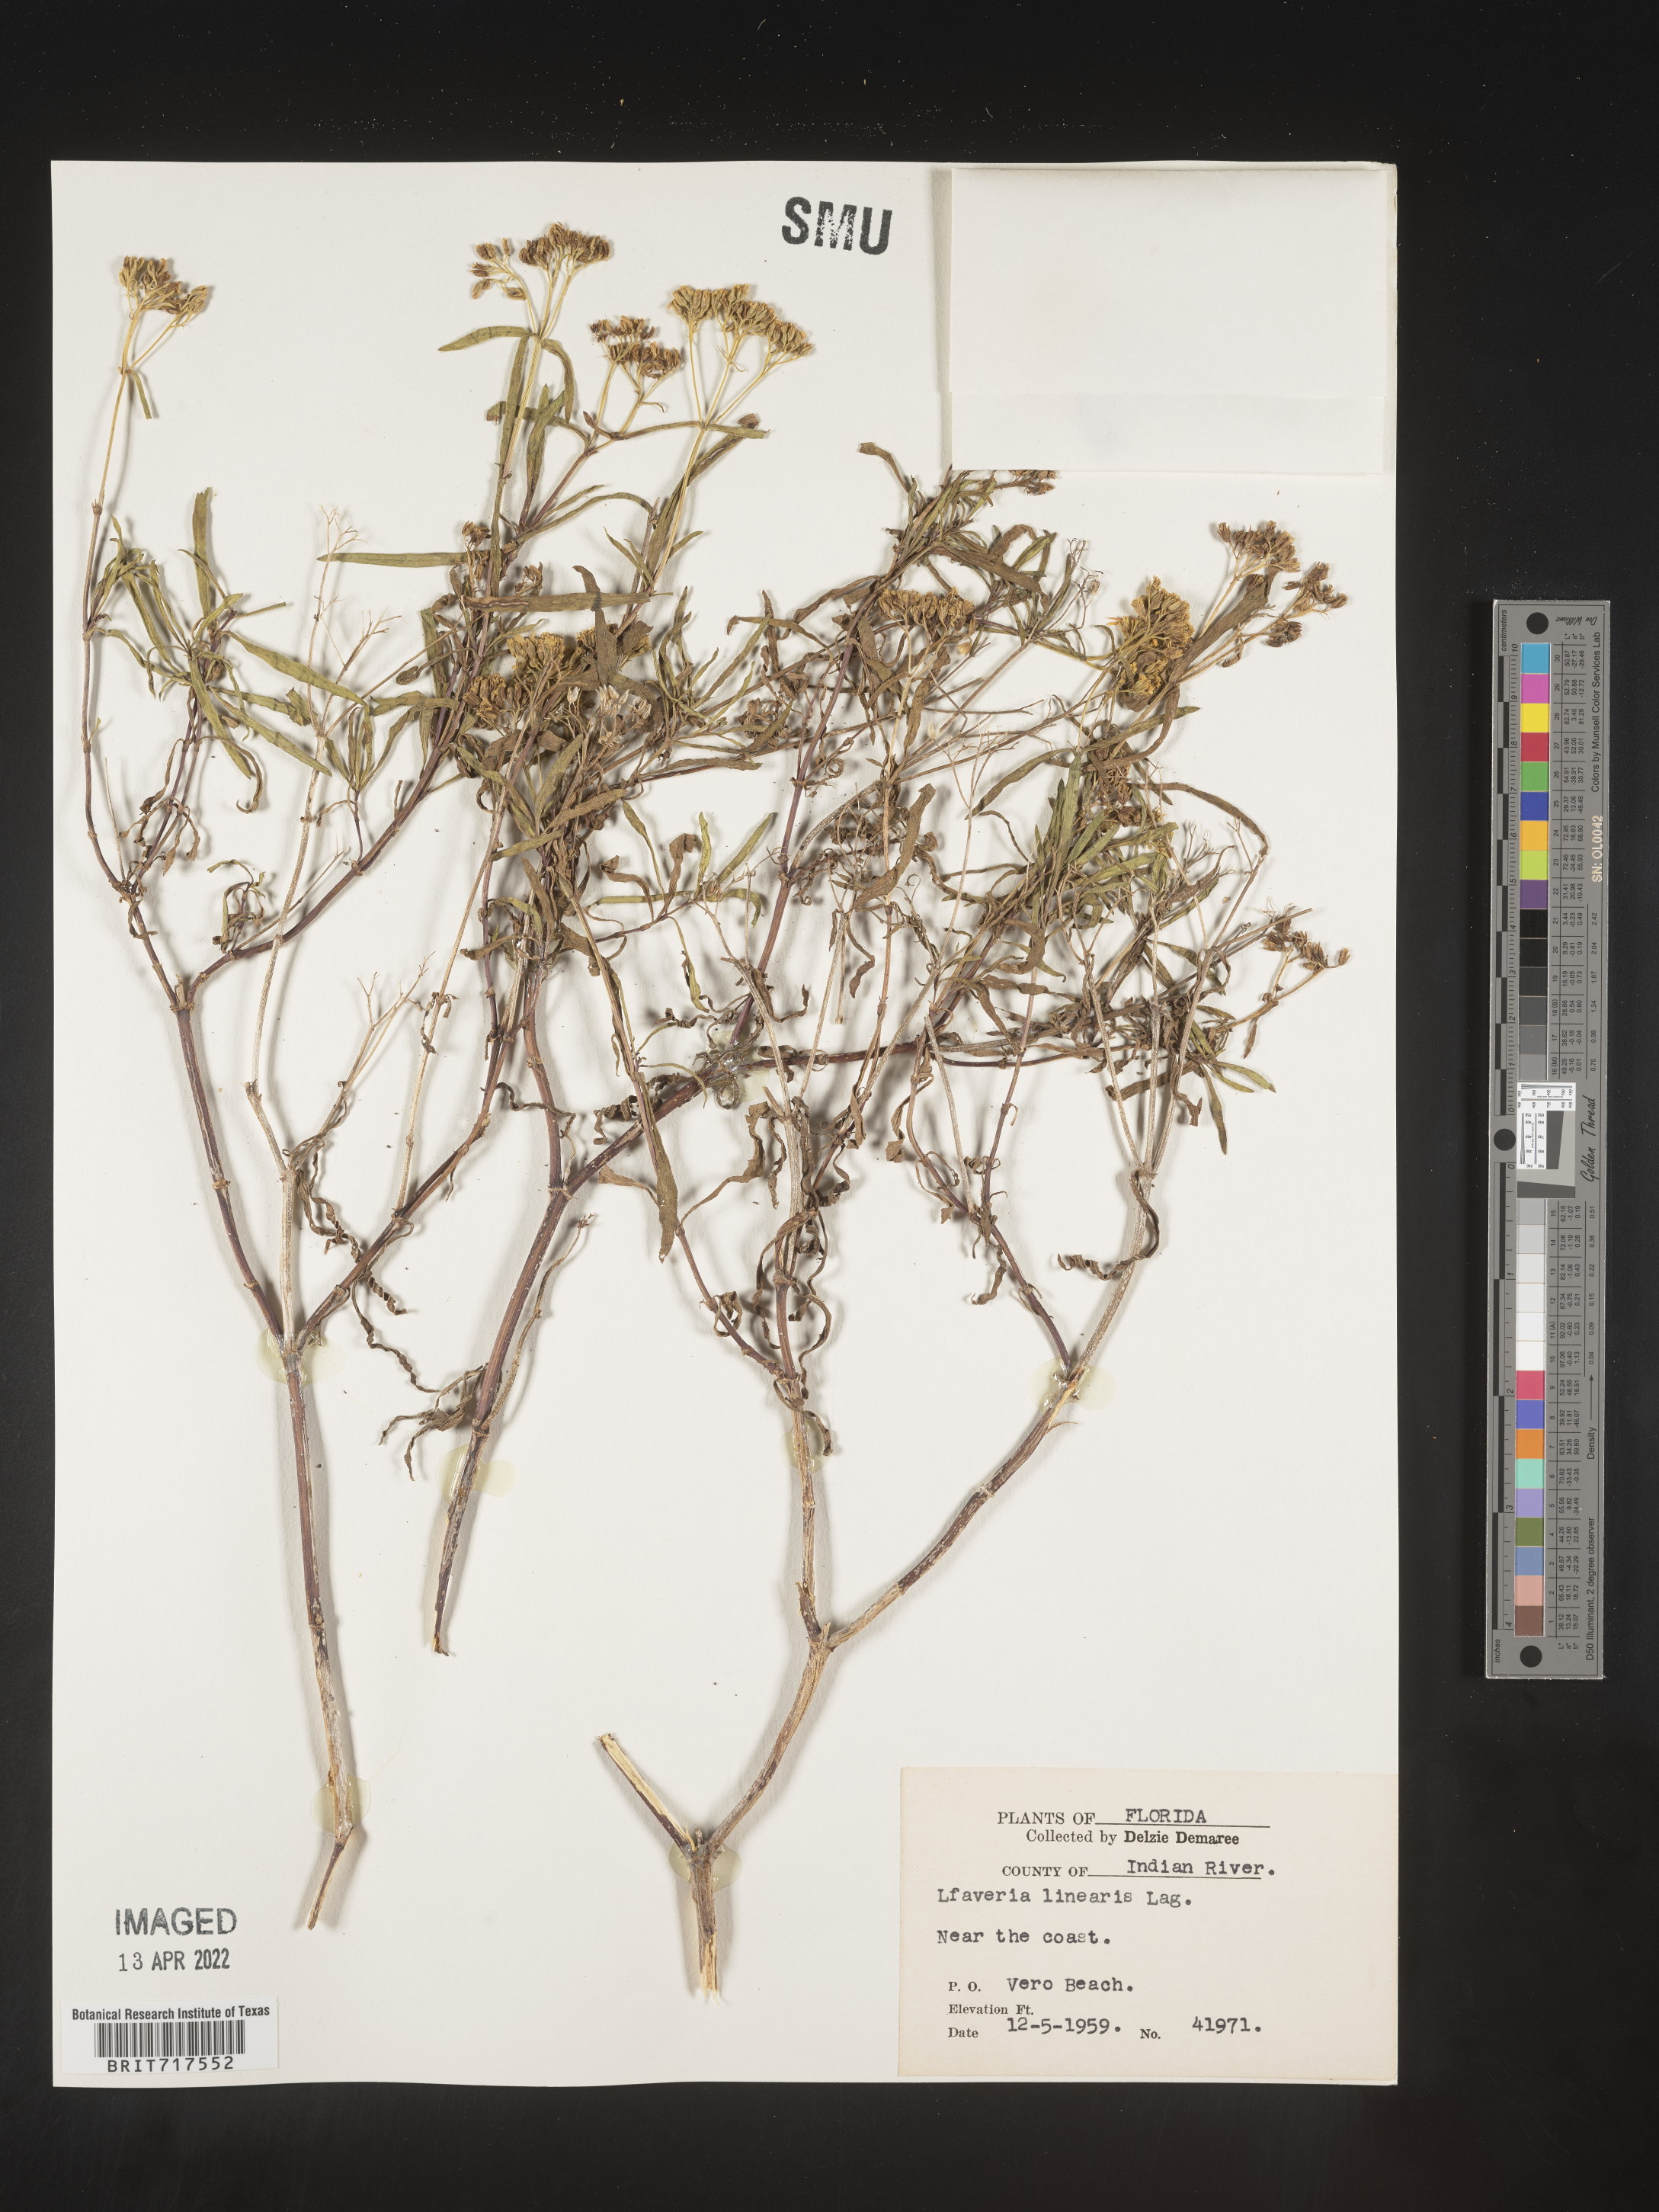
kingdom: Plantae
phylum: Tracheophyta
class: Magnoliopsida
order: Asterales
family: Asteraceae
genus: Flaveria
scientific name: Flaveria linearis
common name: Yellowtop
